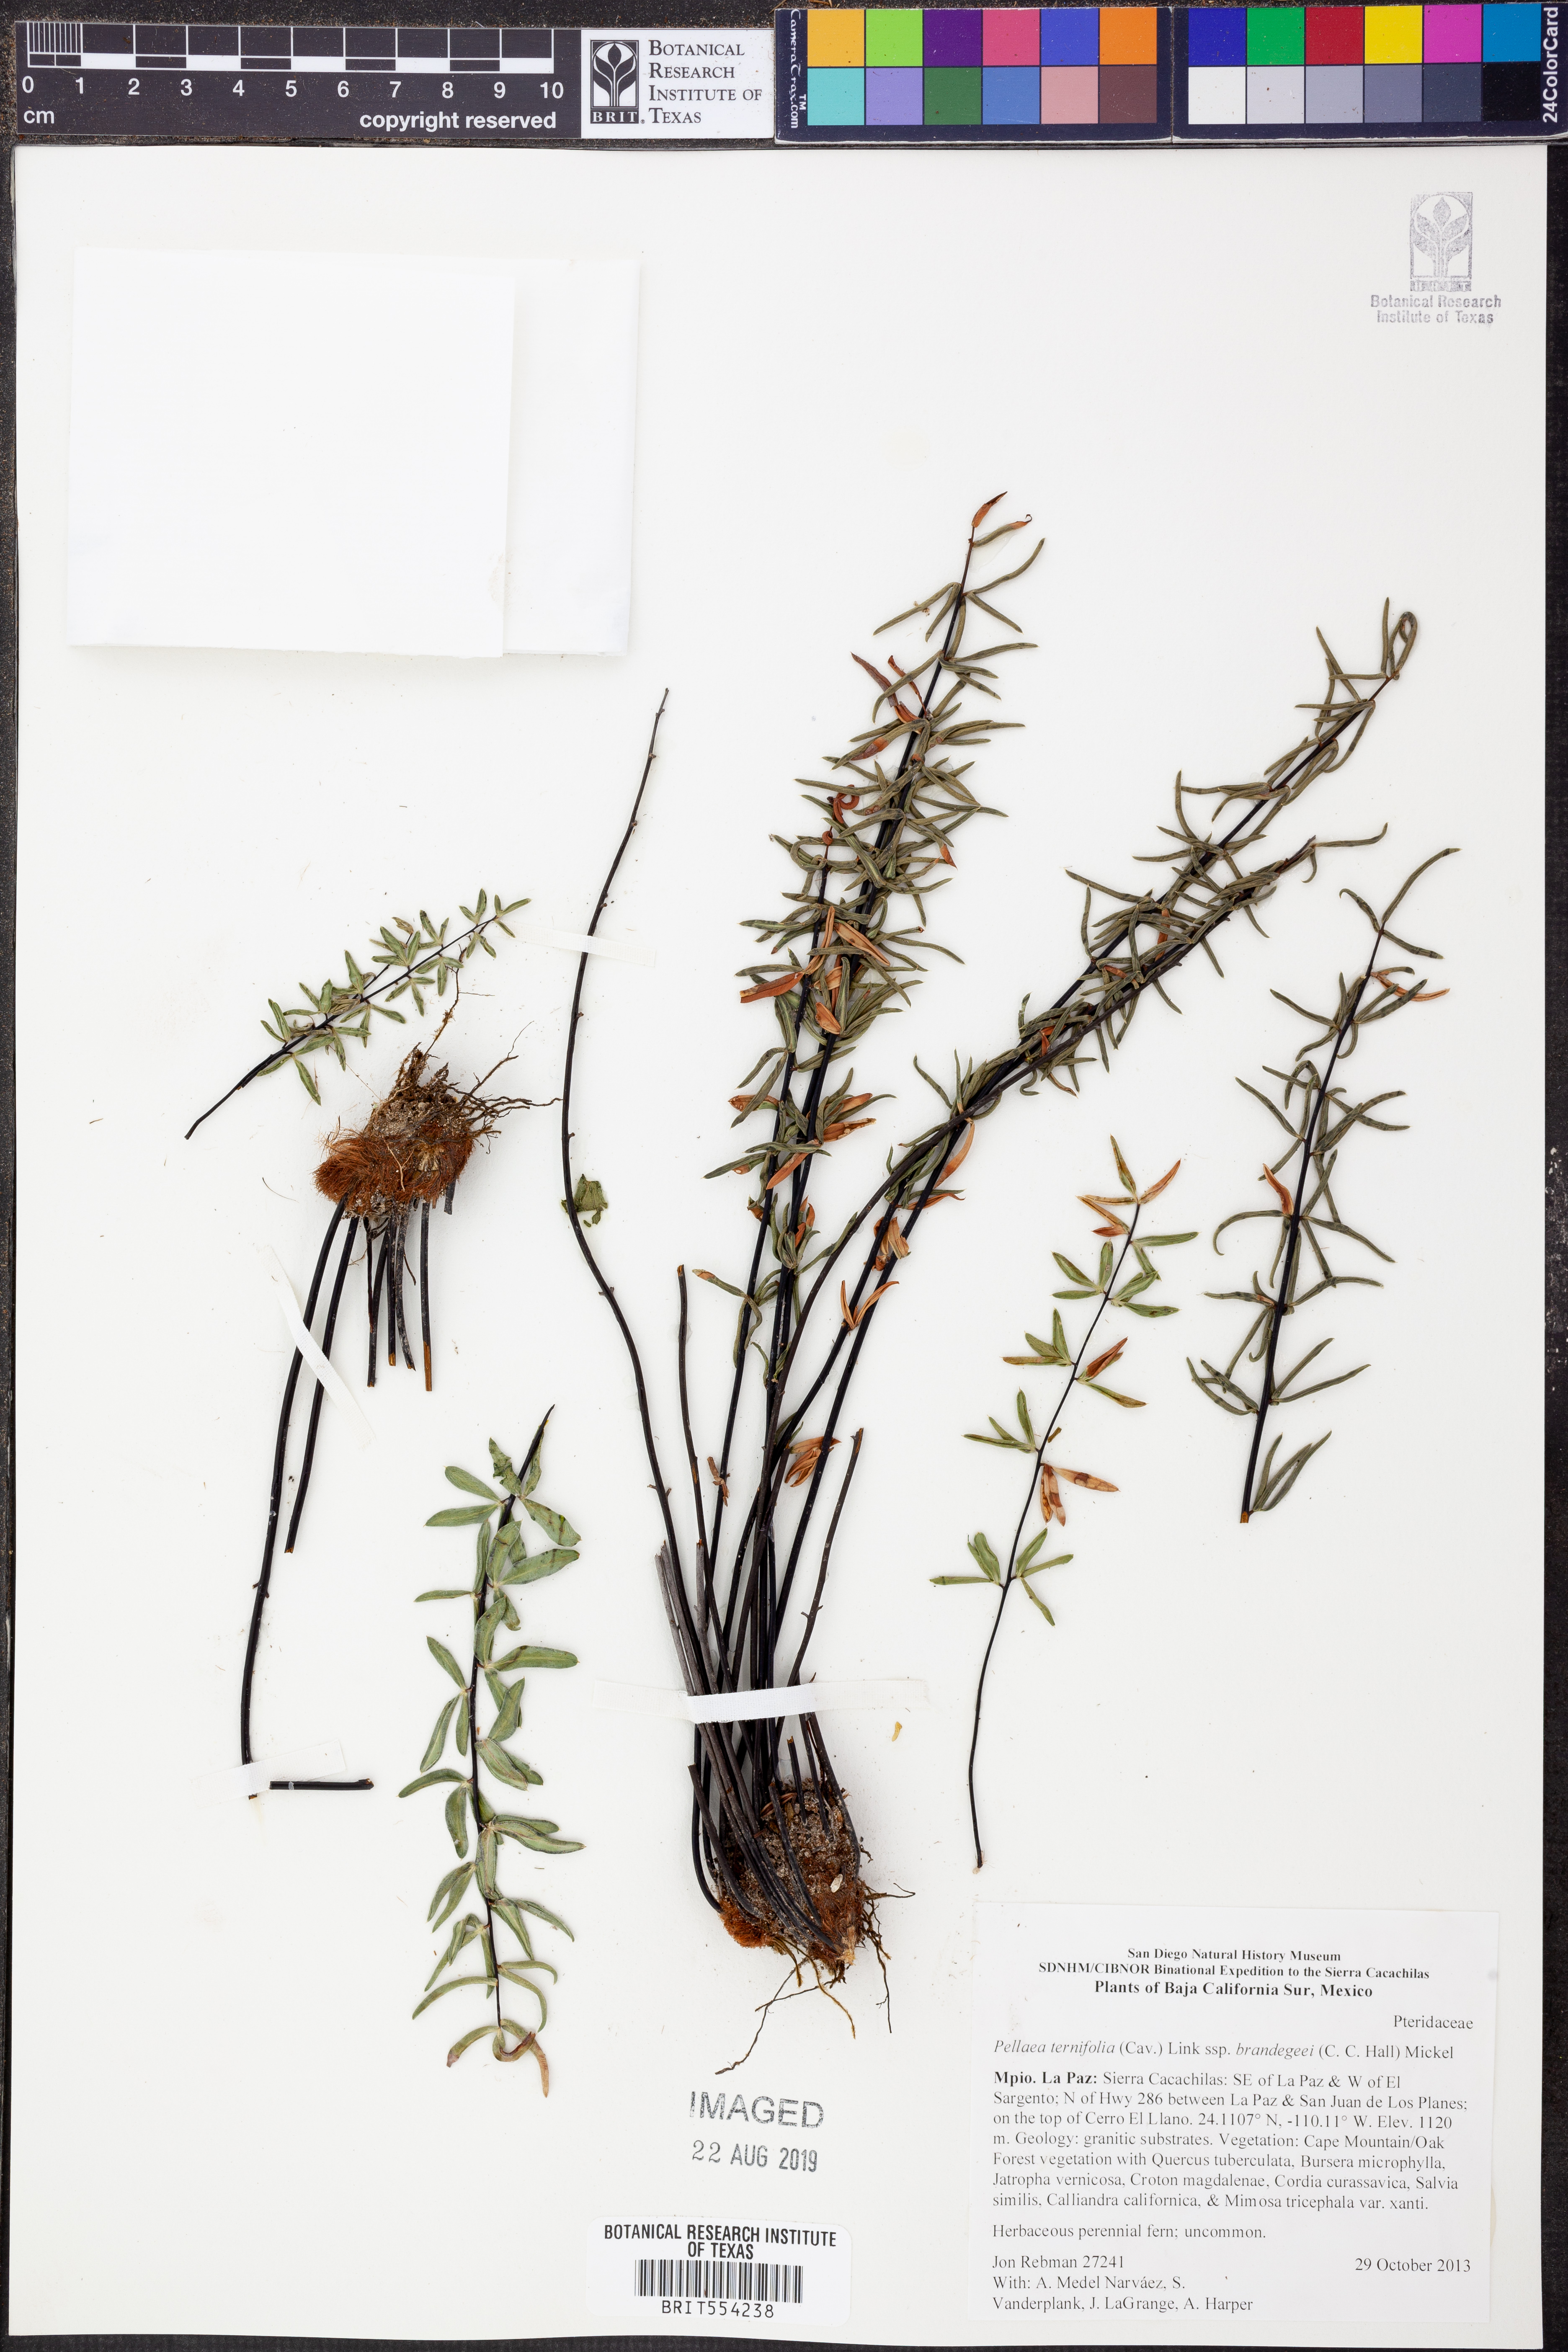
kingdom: Plantae
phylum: Tracheophyta
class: Polypodiopsida
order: Polypodiales
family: Pteridaceae
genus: Pellaea
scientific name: Pellaea ternifolia
